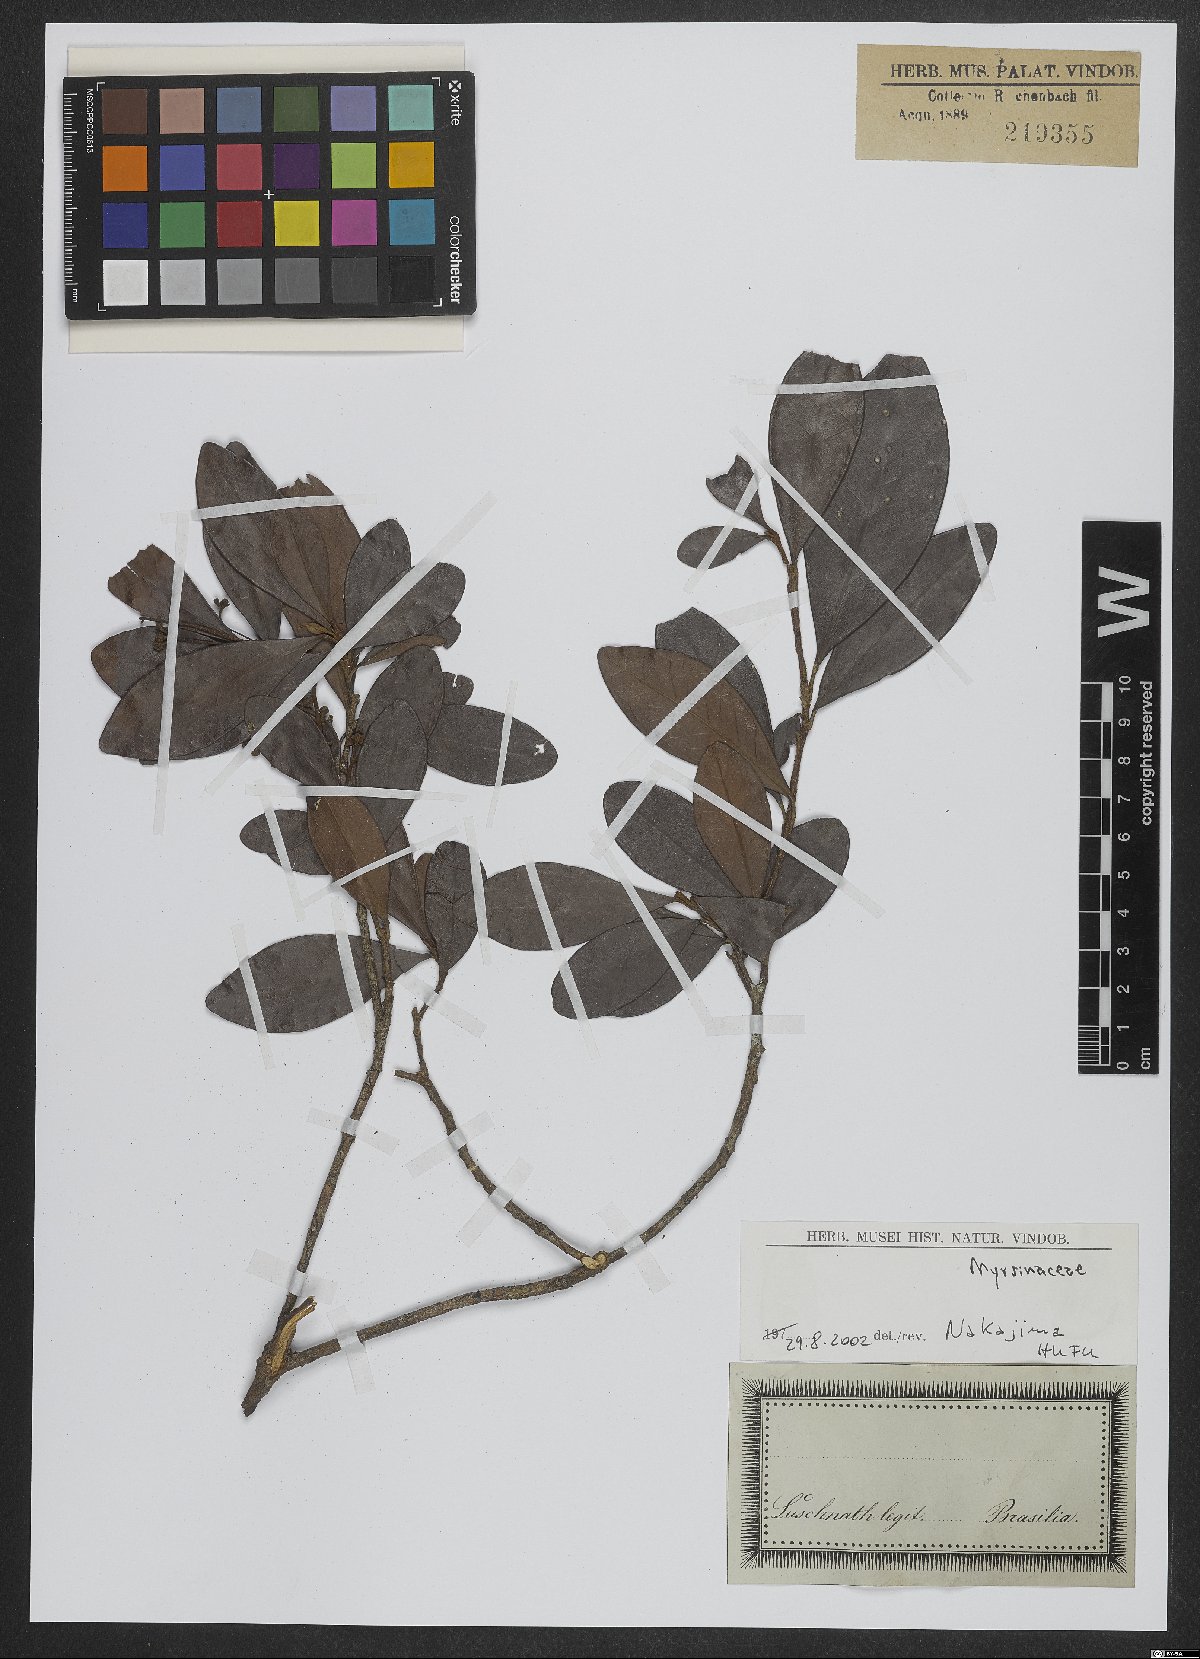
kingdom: Plantae
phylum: Tracheophyta
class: Magnoliopsida
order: Ericales
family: Primulaceae
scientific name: Primulaceae
